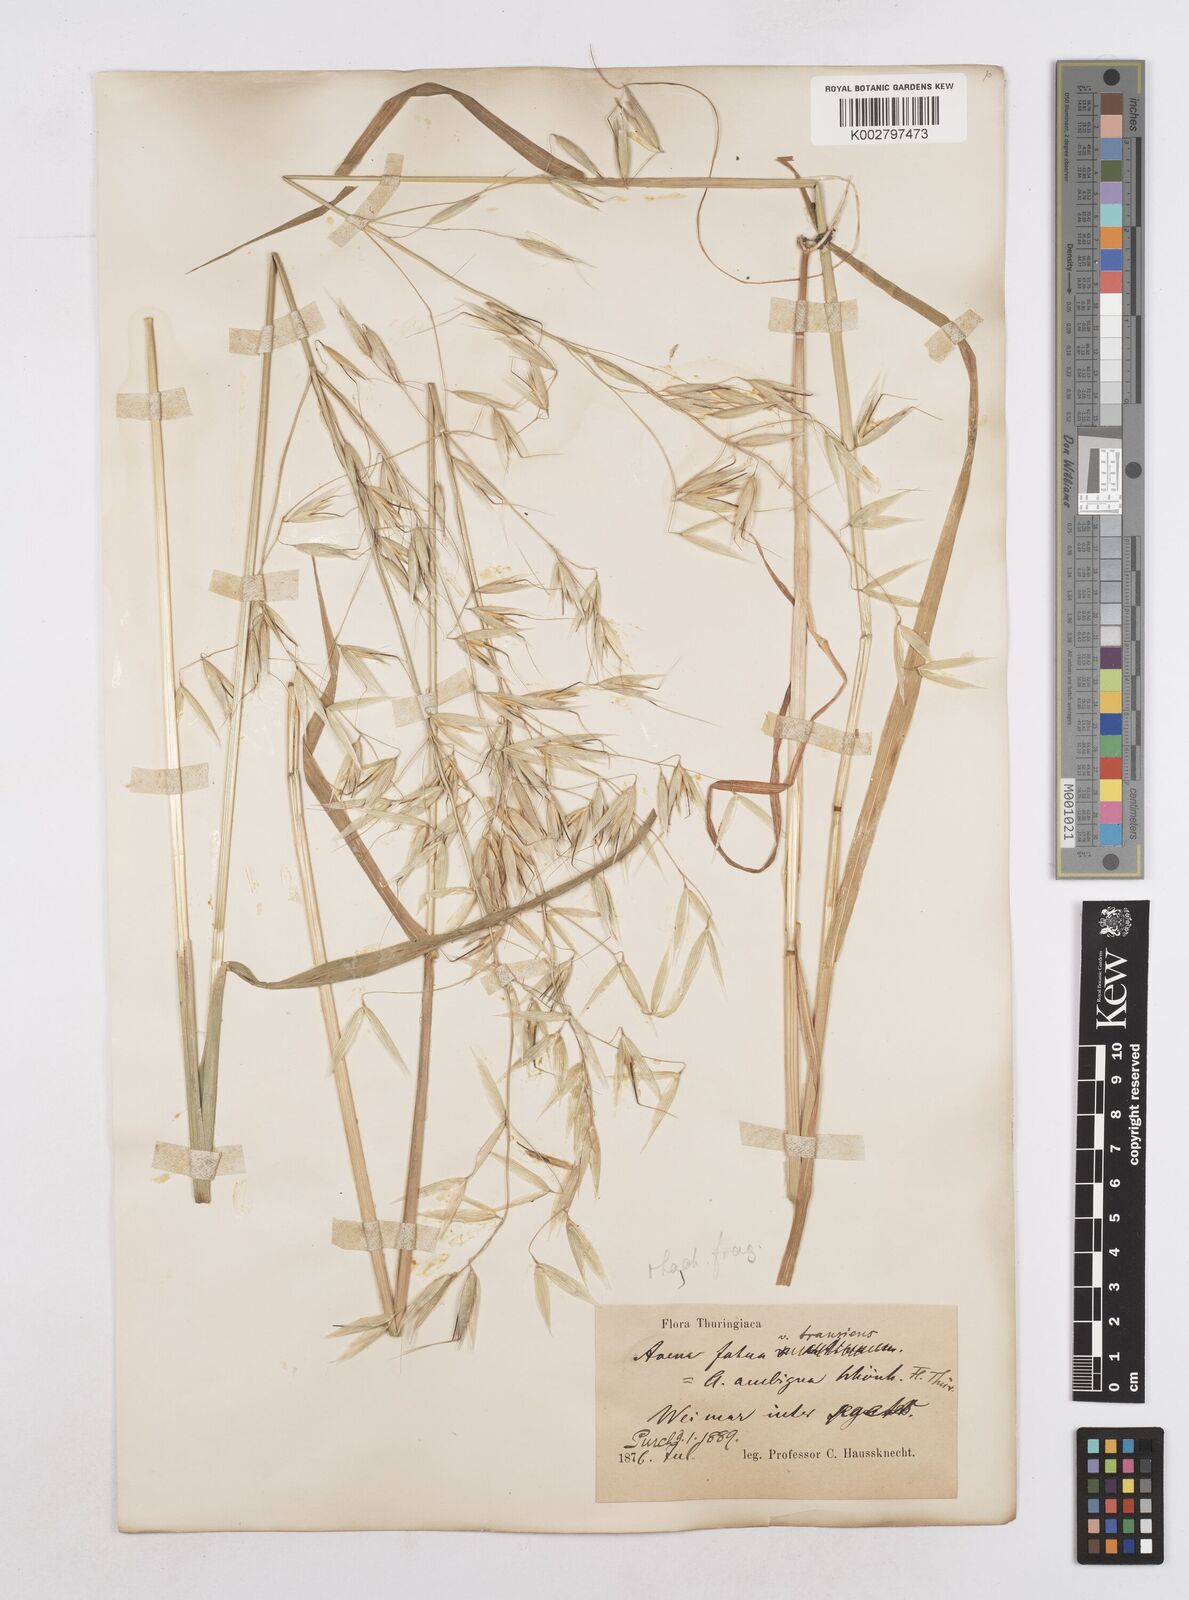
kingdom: Plantae
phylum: Tracheophyta
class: Liliopsida
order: Poales
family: Poaceae
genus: Avena
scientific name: Avena fatua
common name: Wild oat
